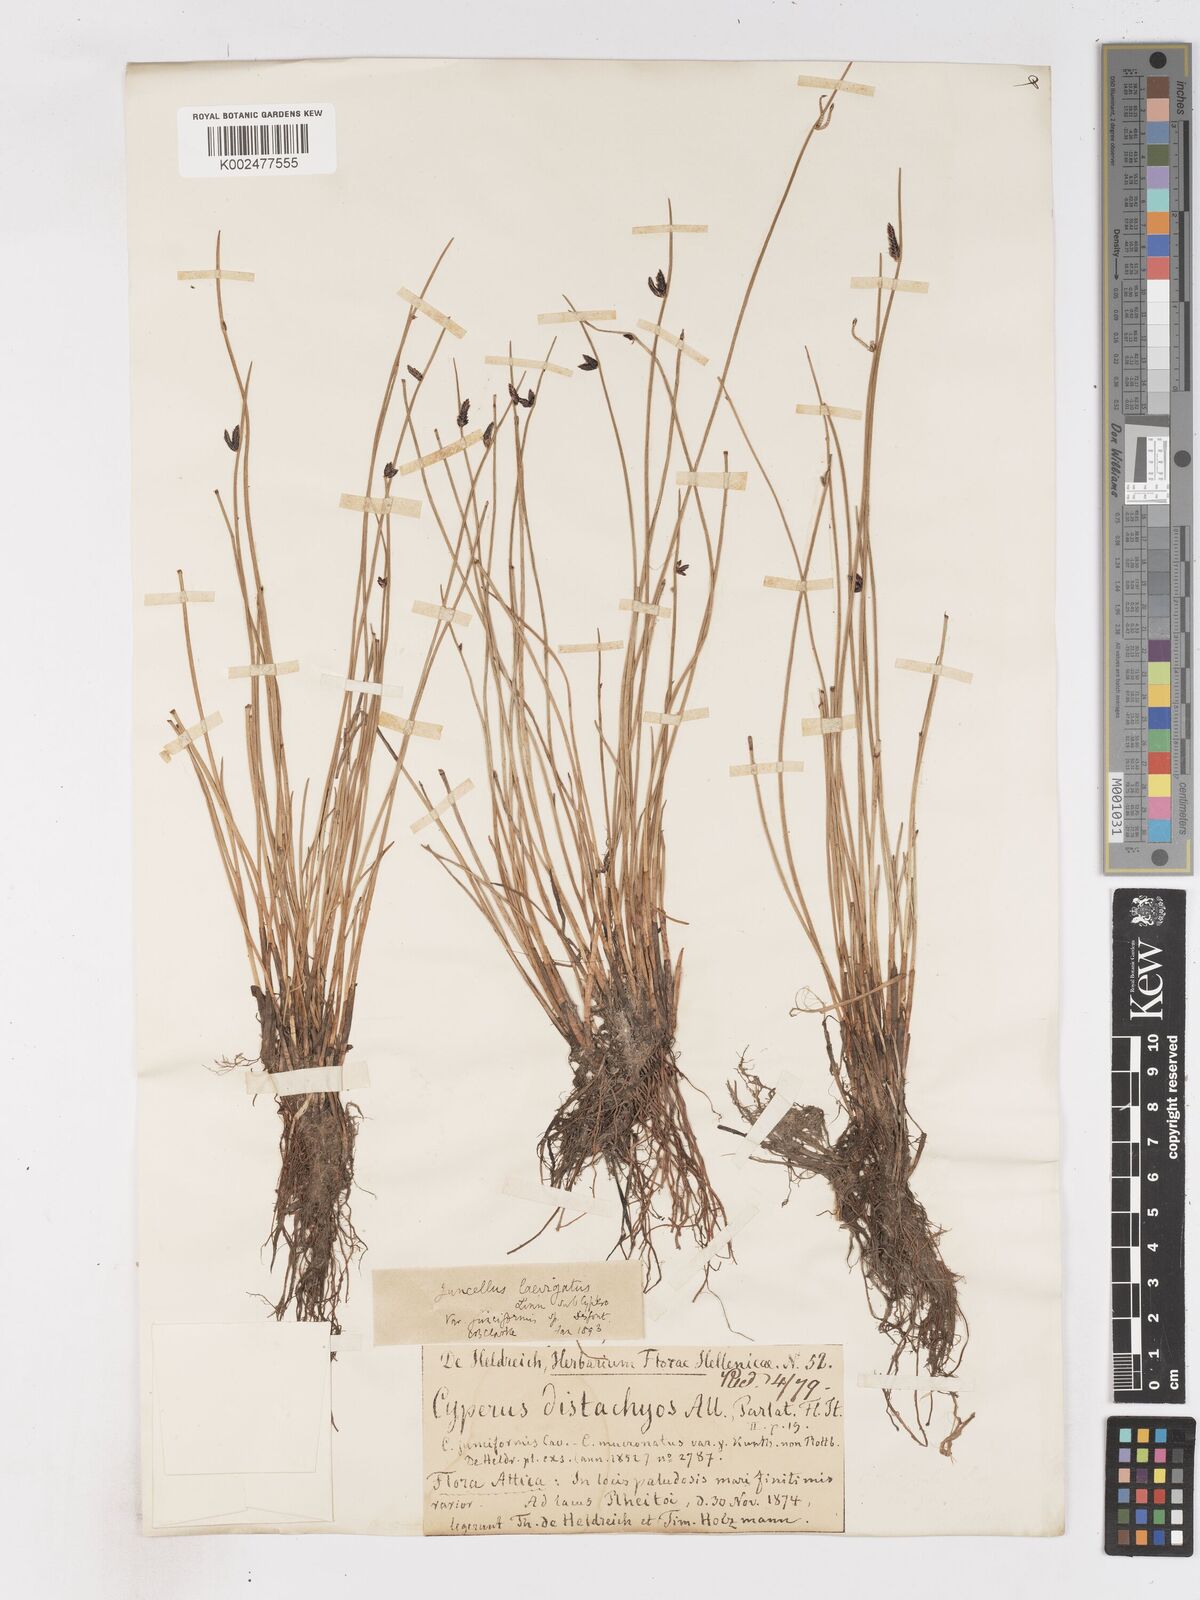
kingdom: Plantae
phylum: Tracheophyta
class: Liliopsida
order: Poales
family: Cyperaceae
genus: Cyperus
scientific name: Cyperus laevigatus
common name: Smooth flat sedge
